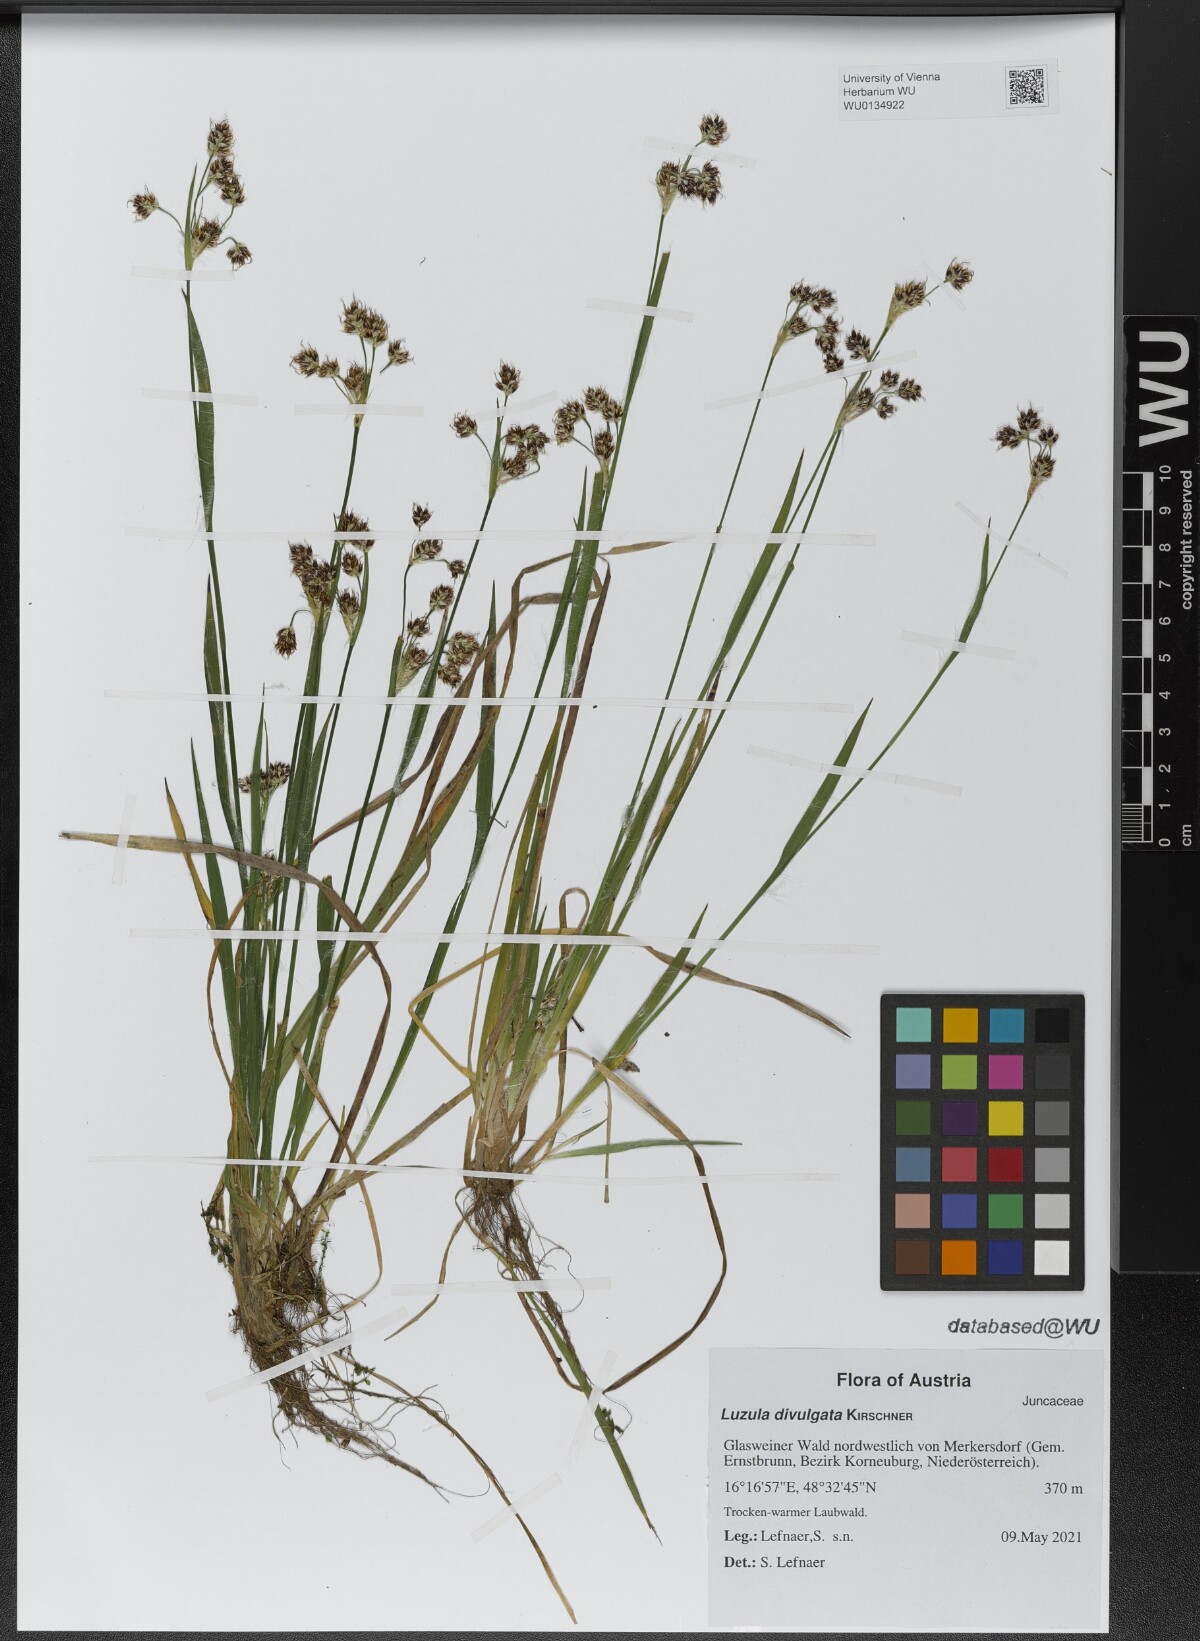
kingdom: Plantae
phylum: Tracheophyta
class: Liliopsida
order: Poales
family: Juncaceae
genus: Luzula
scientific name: Luzula divulgata
